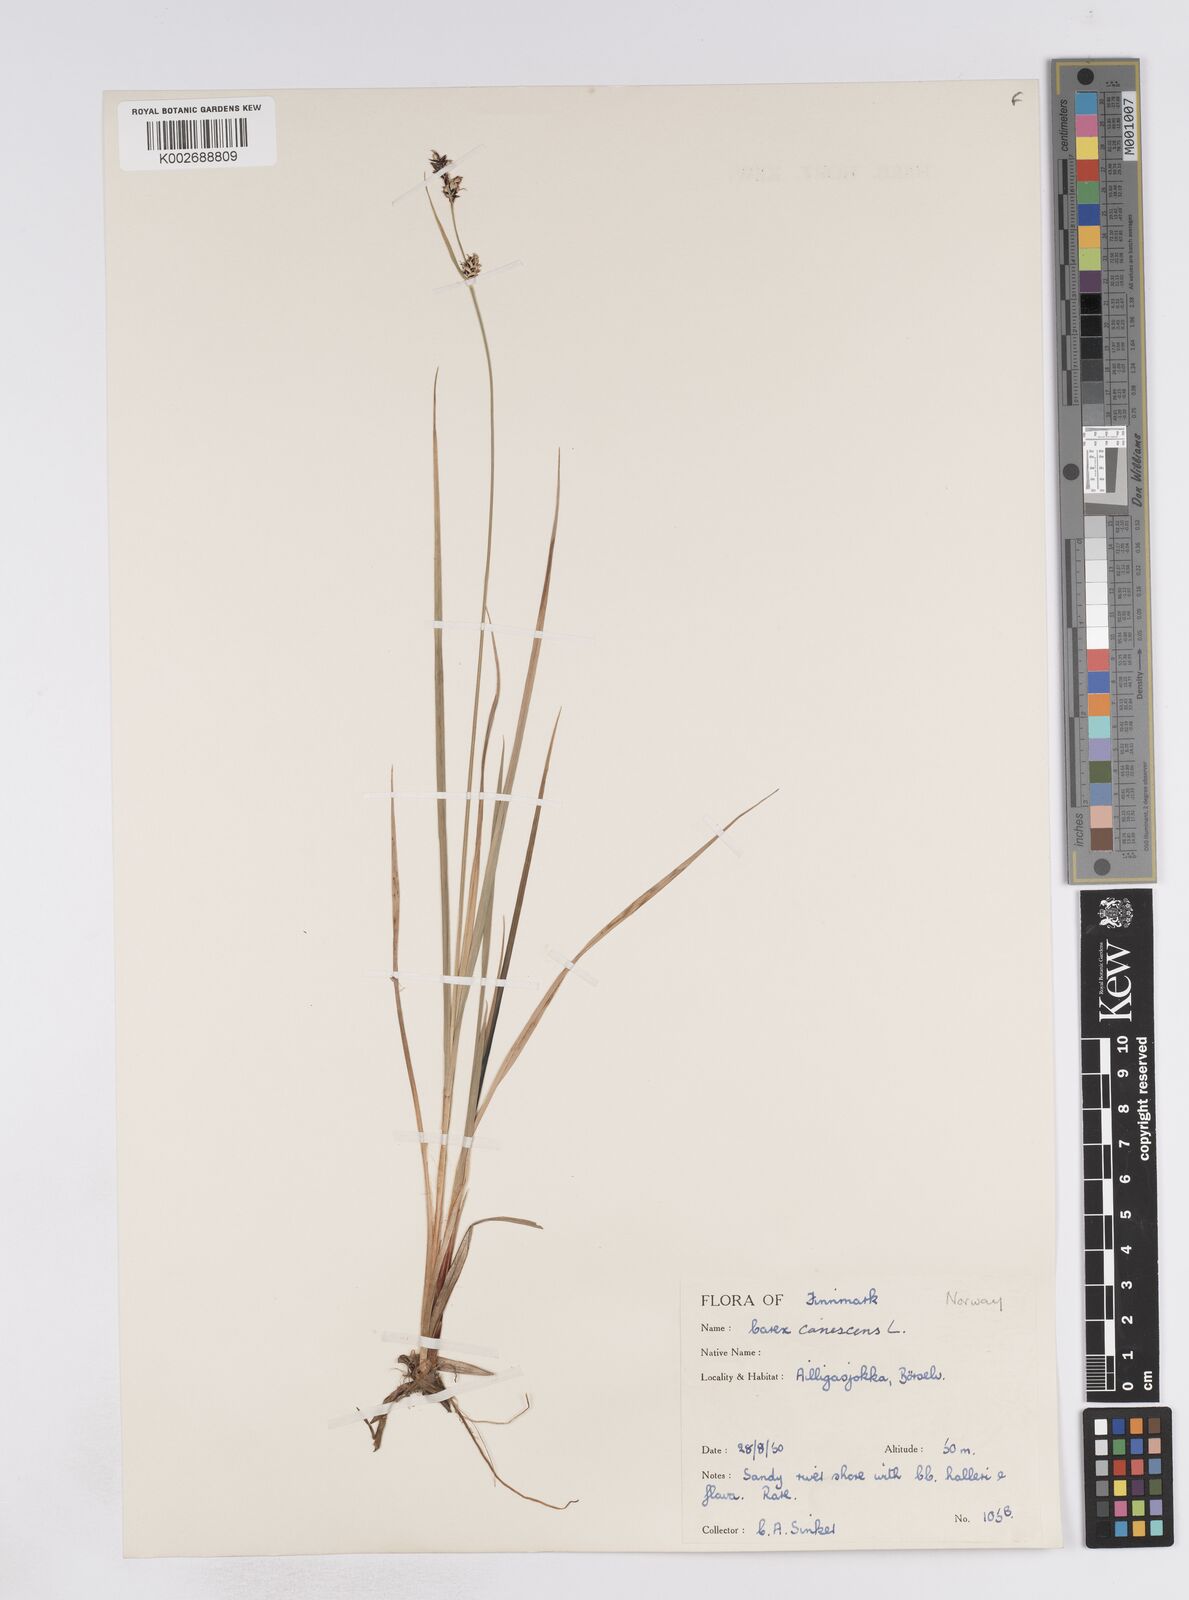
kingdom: Plantae
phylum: Tracheophyta
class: Liliopsida
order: Poales
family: Cyperaceae
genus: Carex
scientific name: Carex buxbaumii
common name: Club sedge
